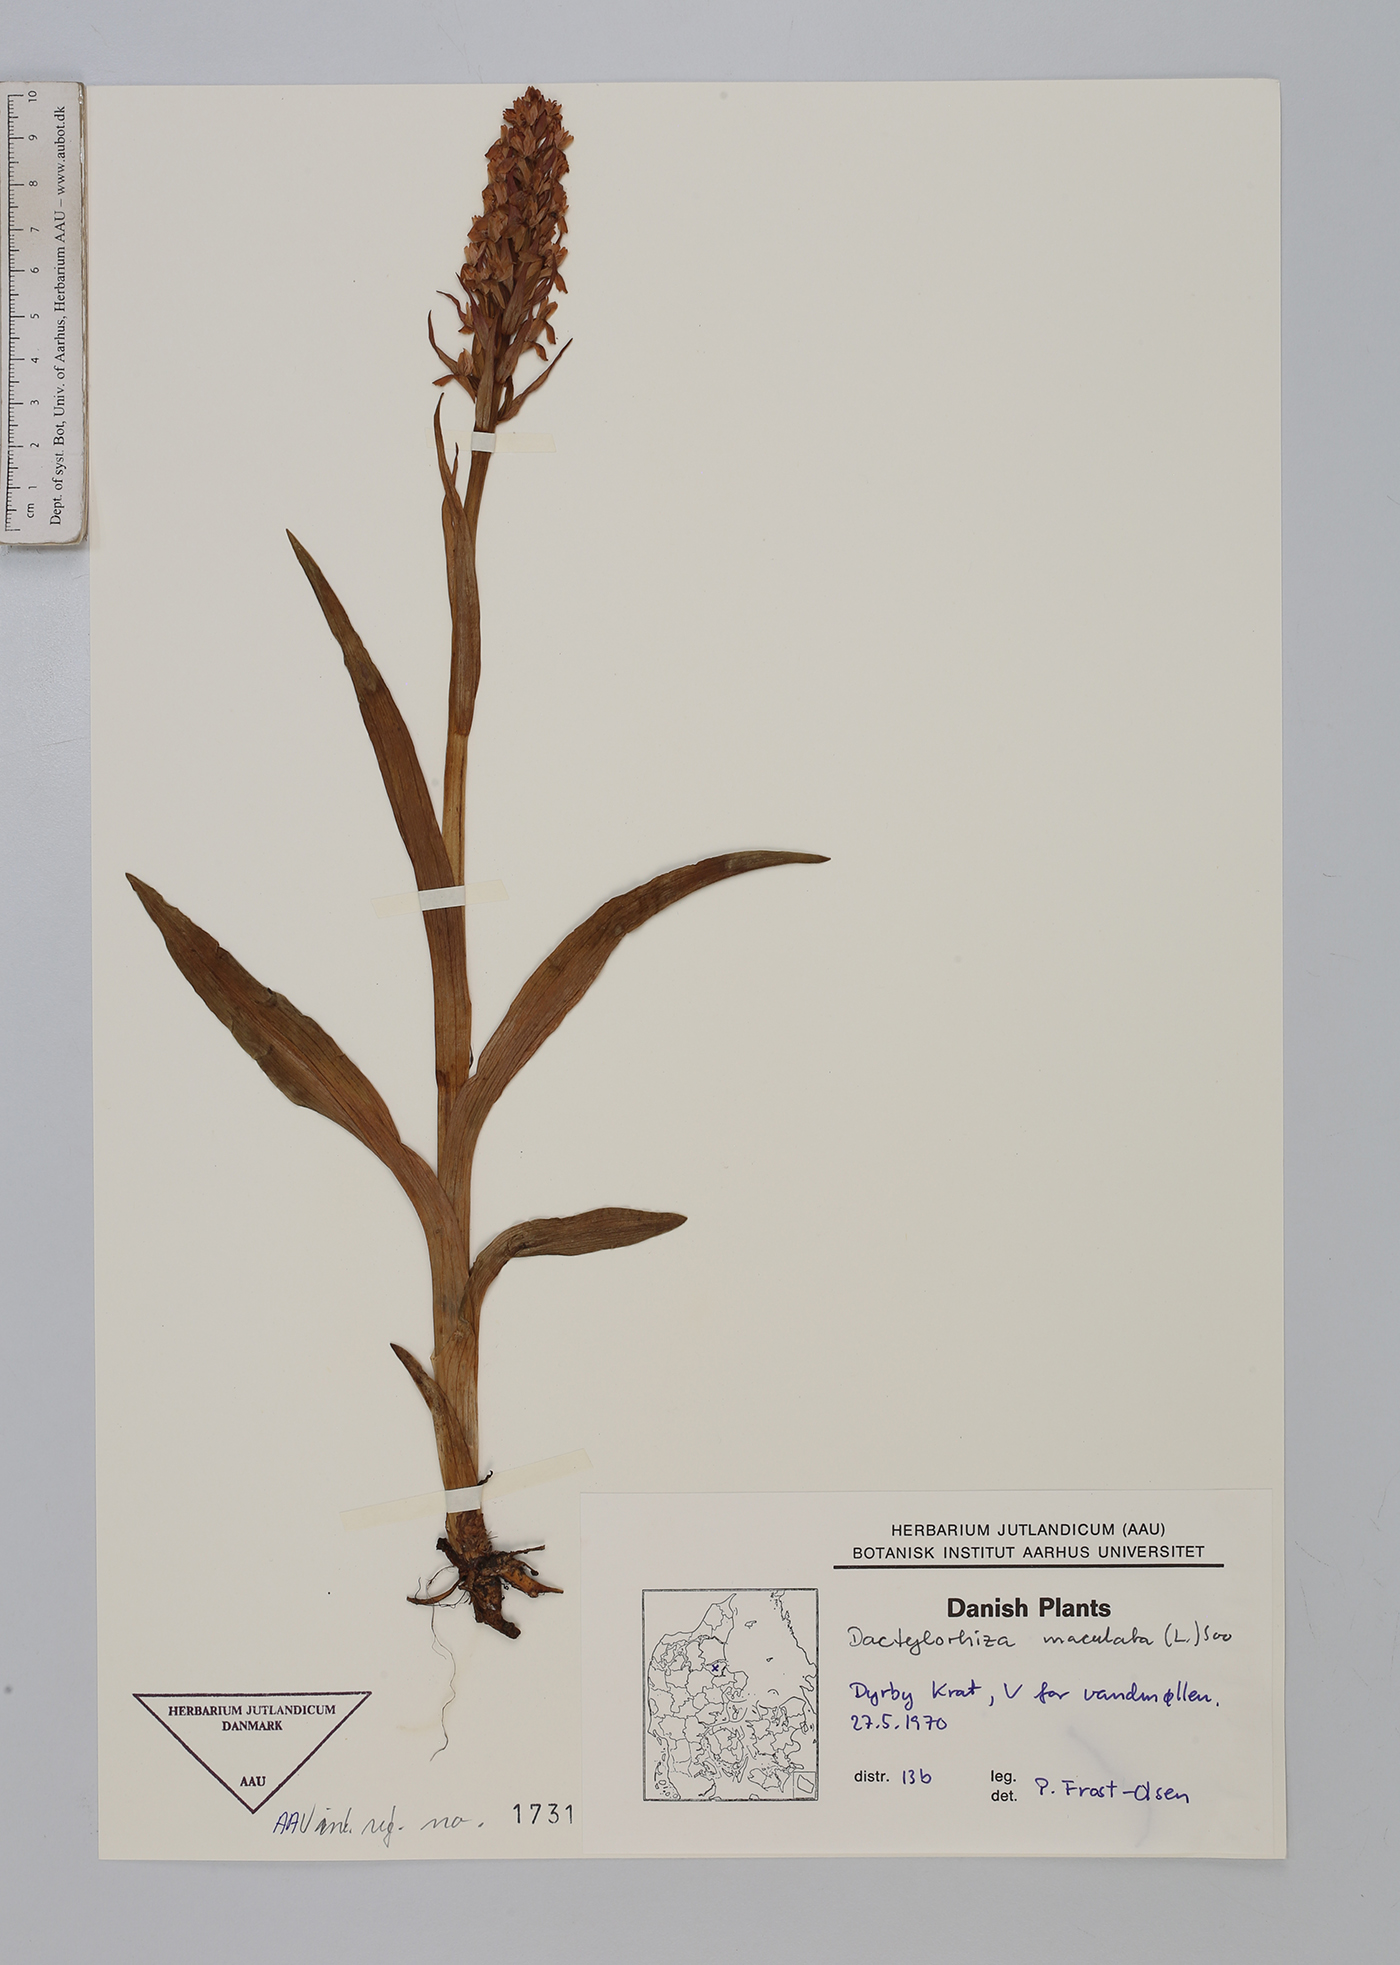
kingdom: Plantae
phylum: Tracheophyta
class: Liliopsida
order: Asparagales
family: Orchidaceae
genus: Dactylorhiza
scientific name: Dactylorhiza maculata
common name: Heath spotted-orchid
